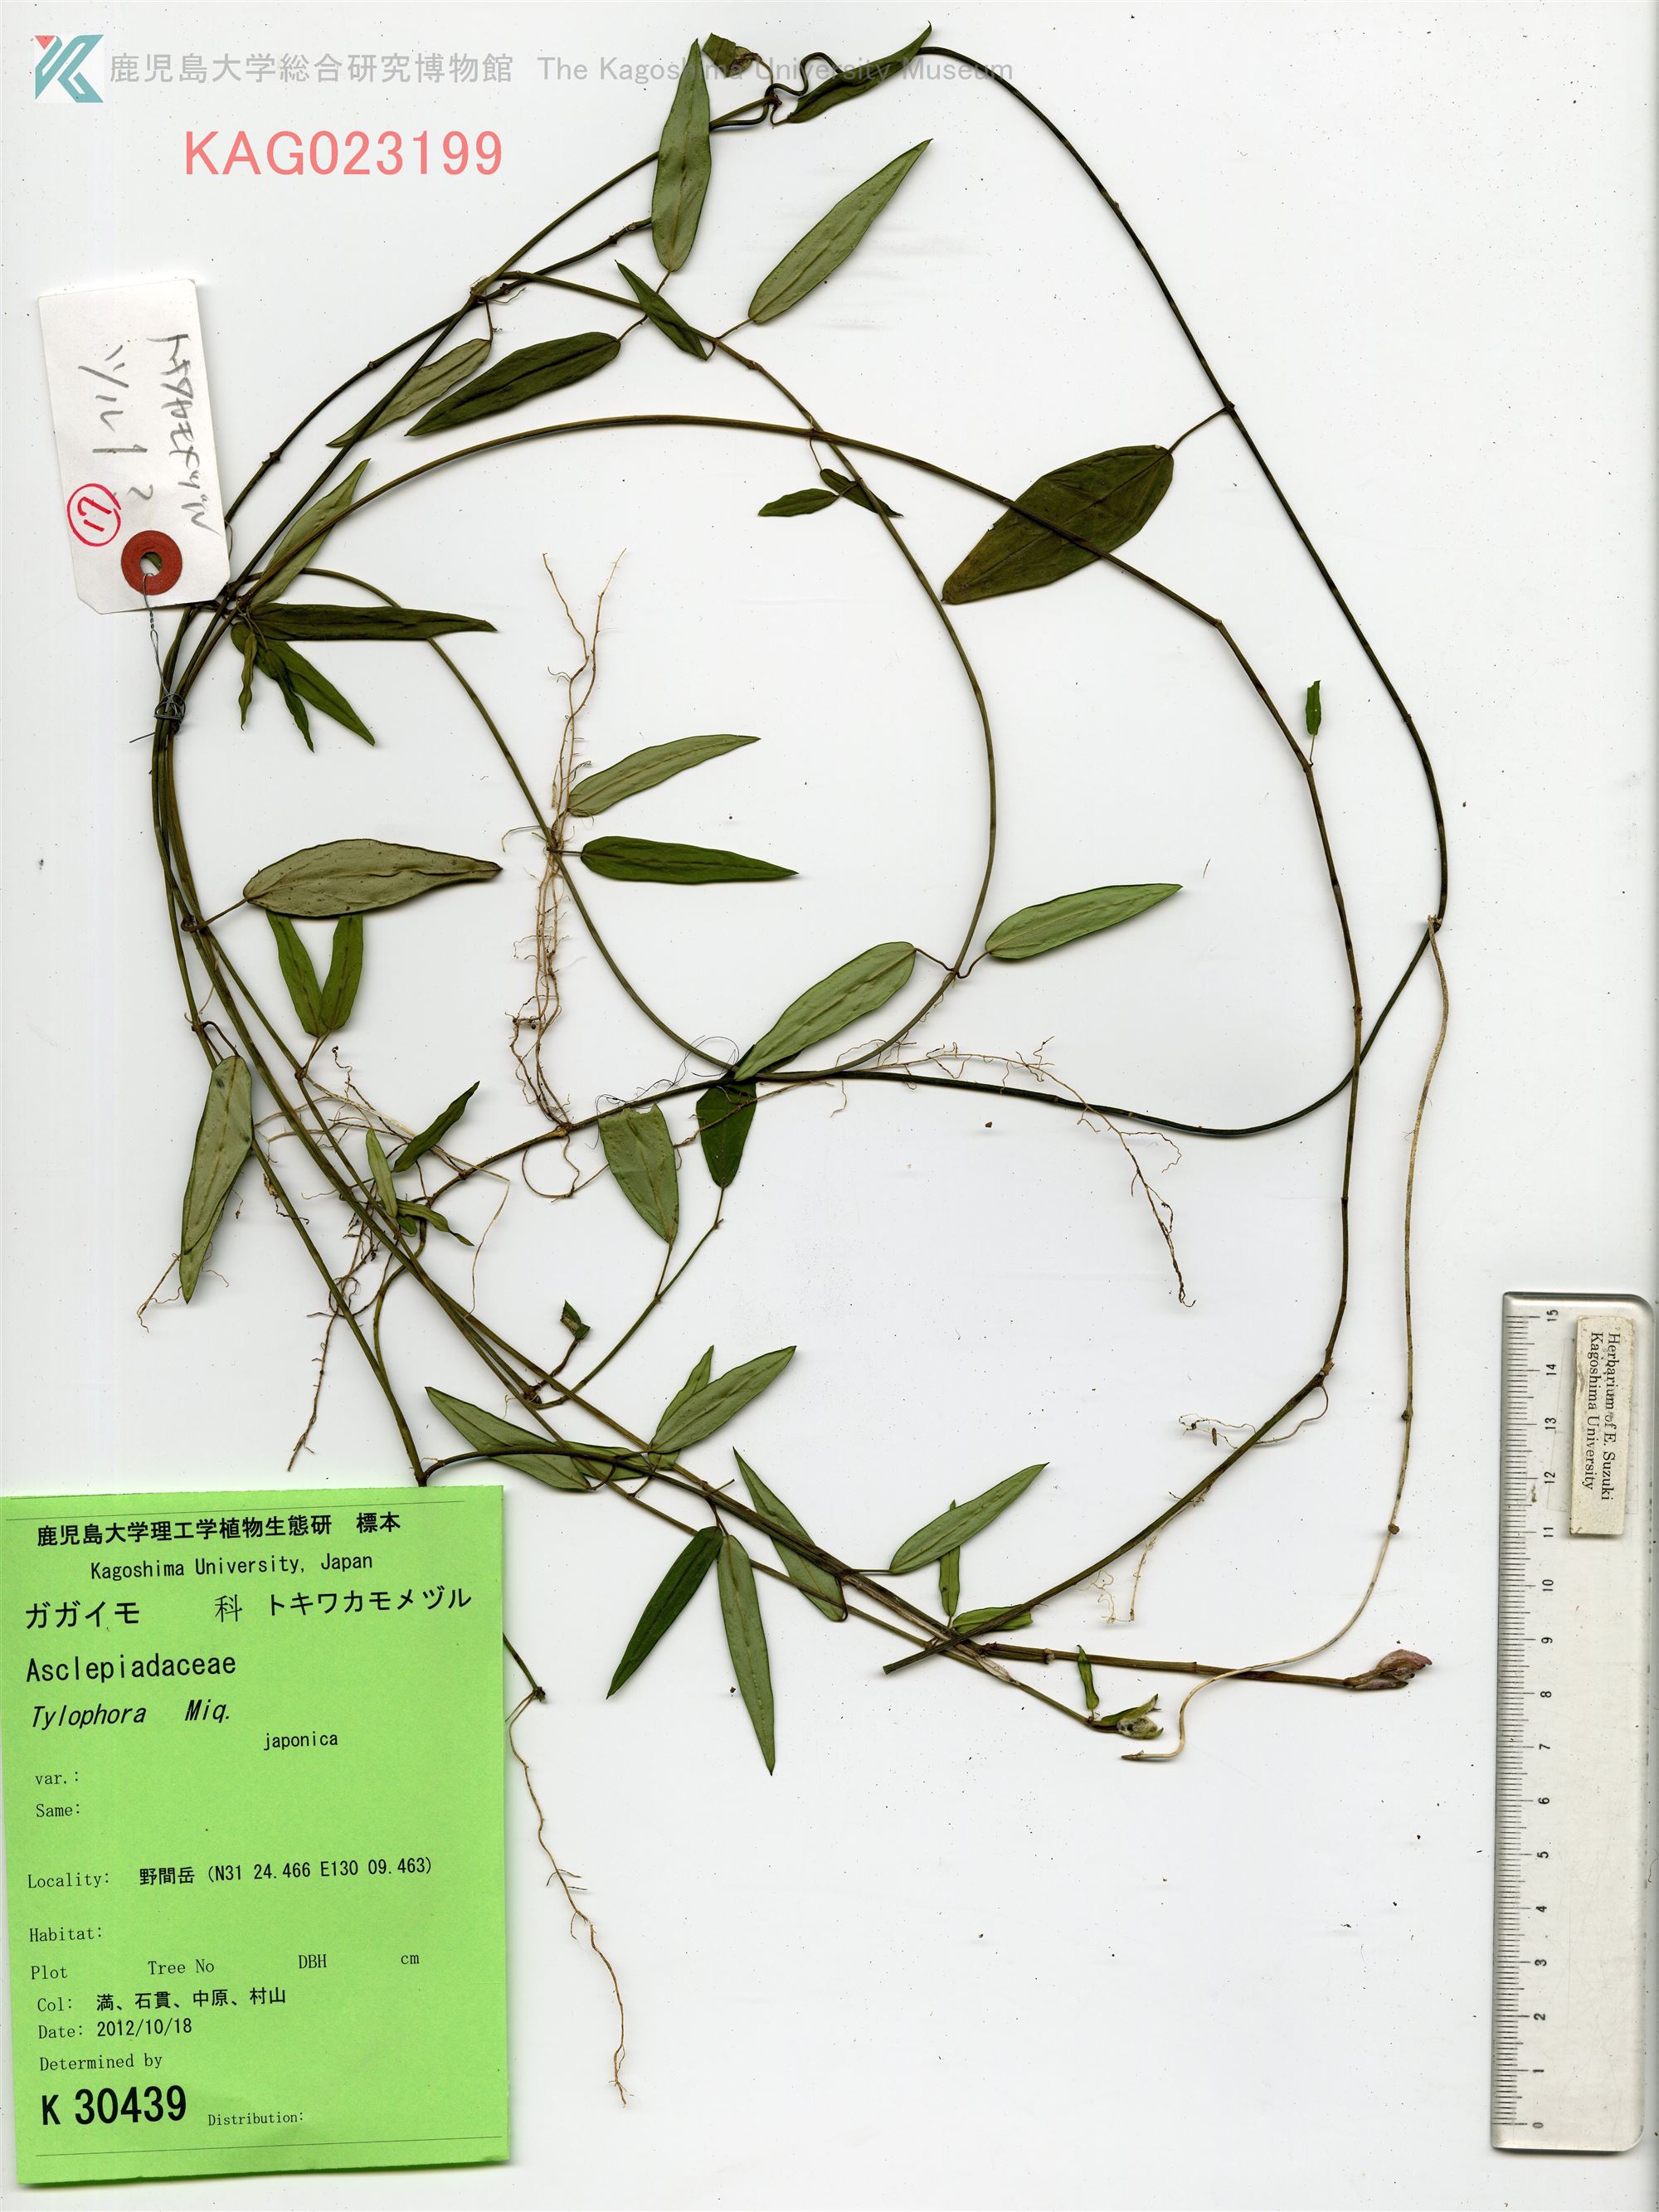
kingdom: Plantae
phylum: Tracheophyta
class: Magnoliopsida
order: Gentianales
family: Apocynaceae
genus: Vincetoxicum
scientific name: Vincetoxicum sieboldii
